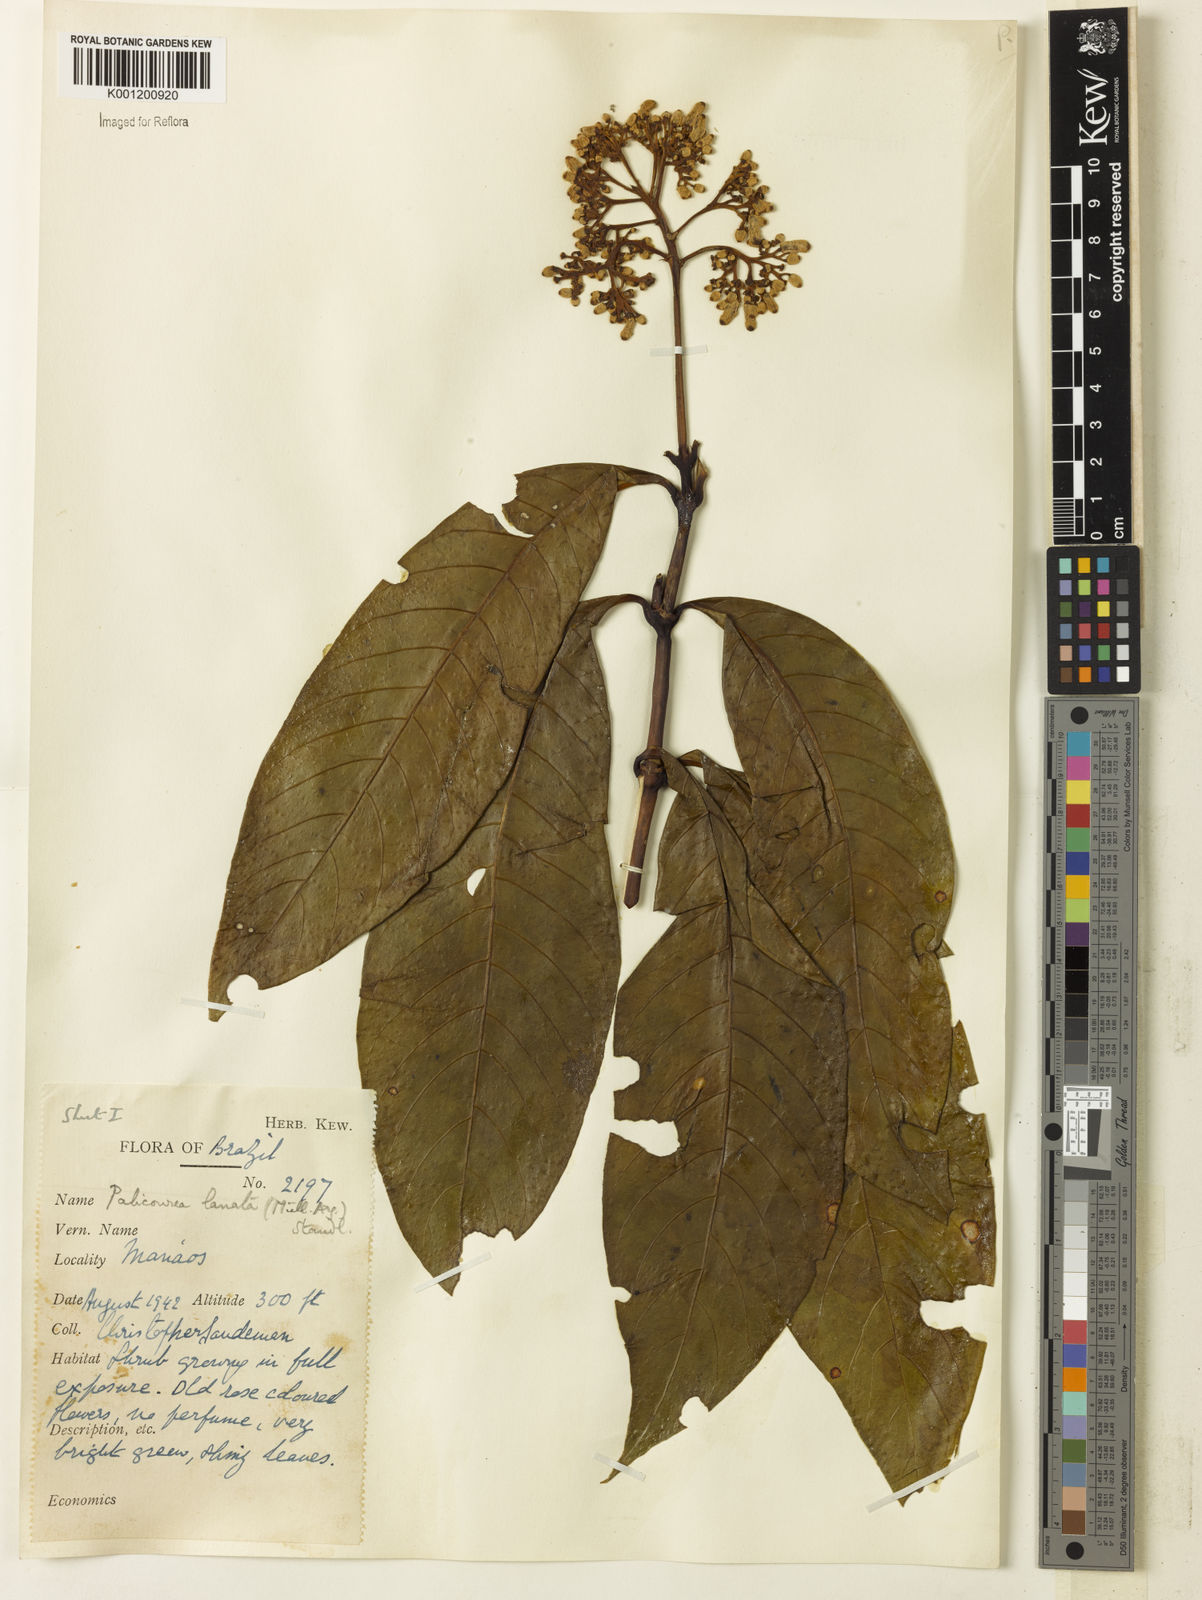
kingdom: Plantae
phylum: Tracheophyta
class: Magnoliopsida
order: Gentianales
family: Rubiaceae
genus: Palicourea
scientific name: Palicourea
